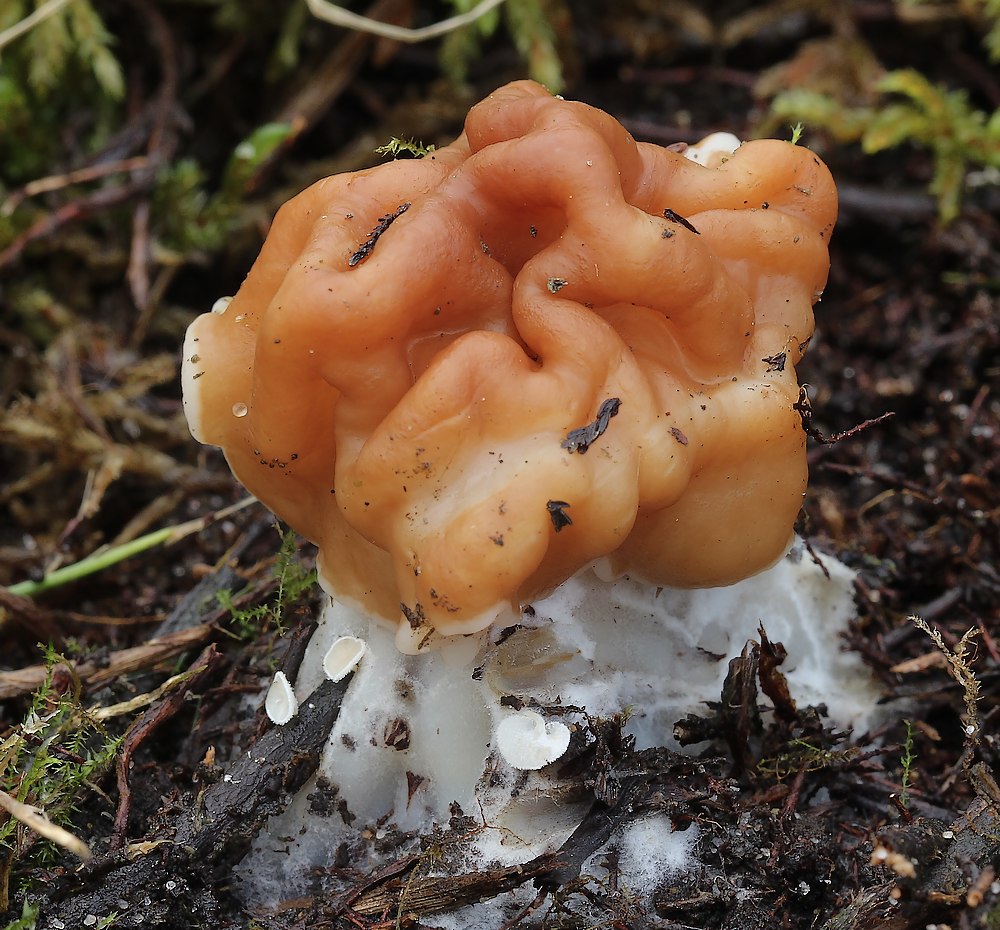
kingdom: Fungi
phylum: Ascomycota
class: Pezizomycetes
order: Pezizales
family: Discinaceae
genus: Gyromitra
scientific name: Gyromitra gigas
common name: kæmpe-stenmorkel
